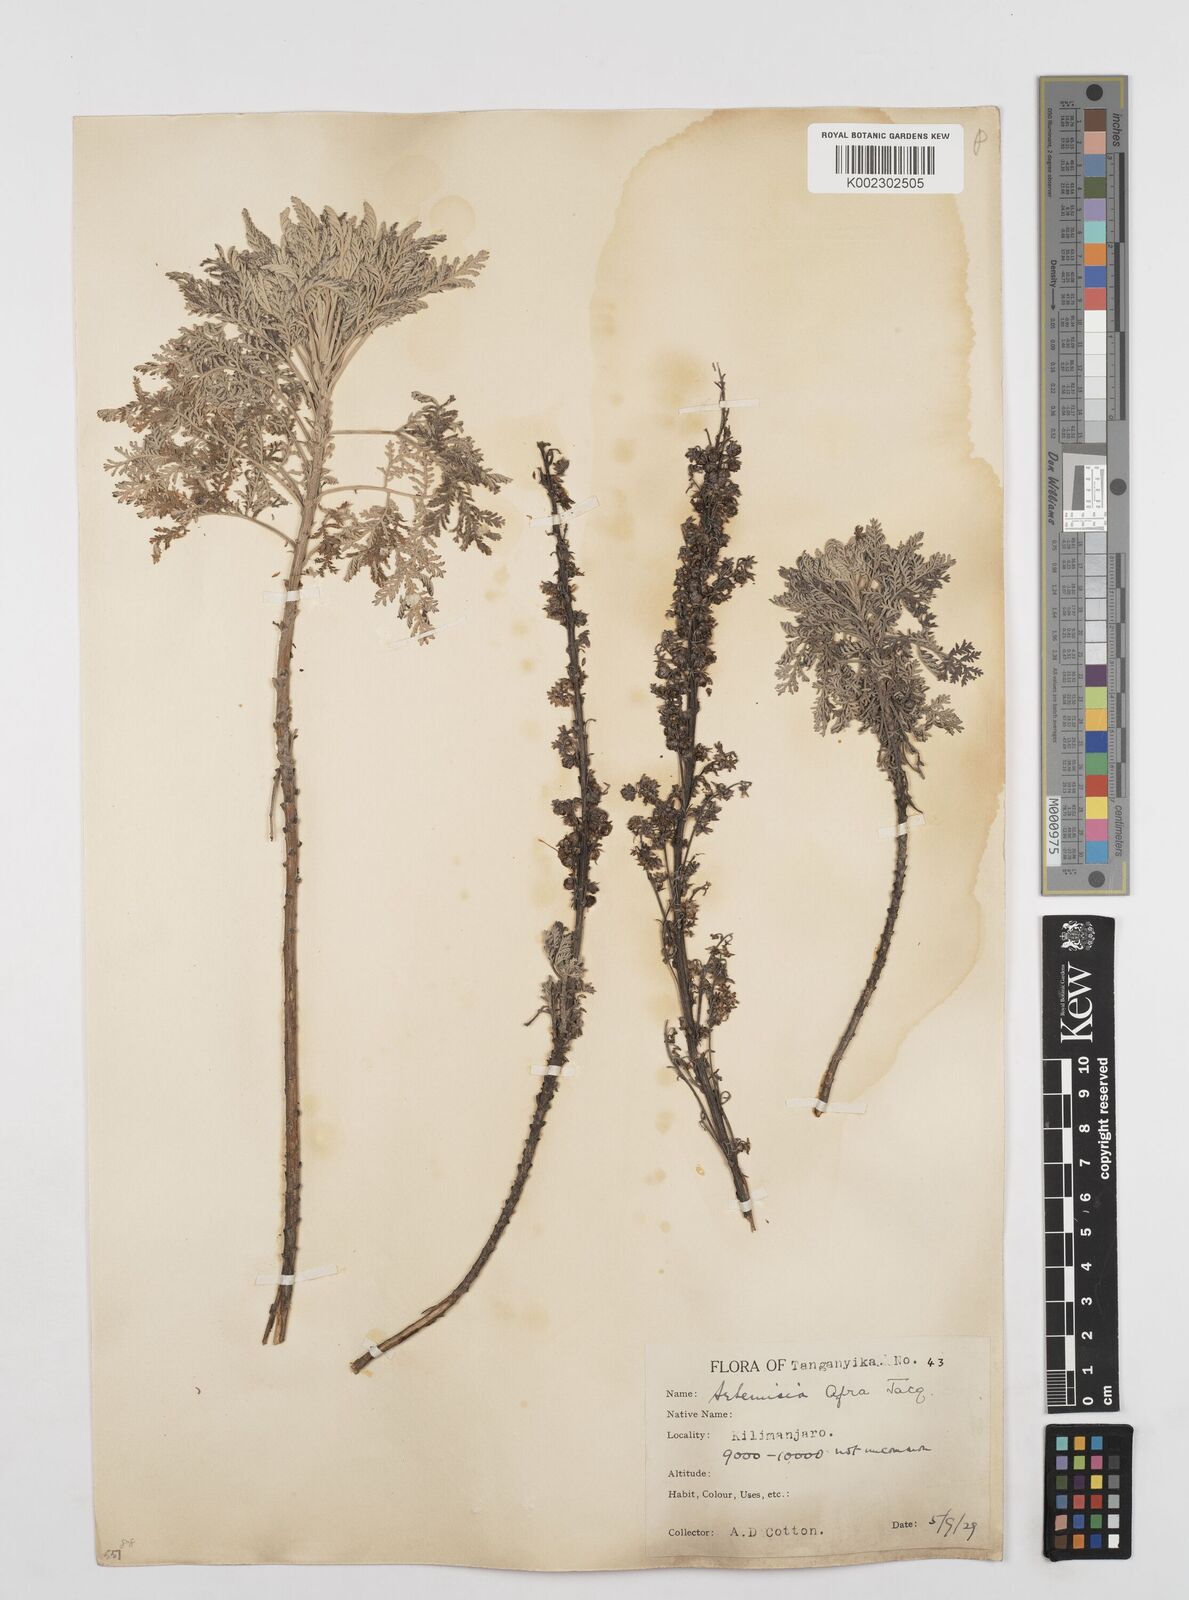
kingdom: Plantae
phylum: Tracheophyta
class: Magnoliopsida
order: Asterales
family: Asteraceae
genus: Artemisia
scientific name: Artemisia afra
